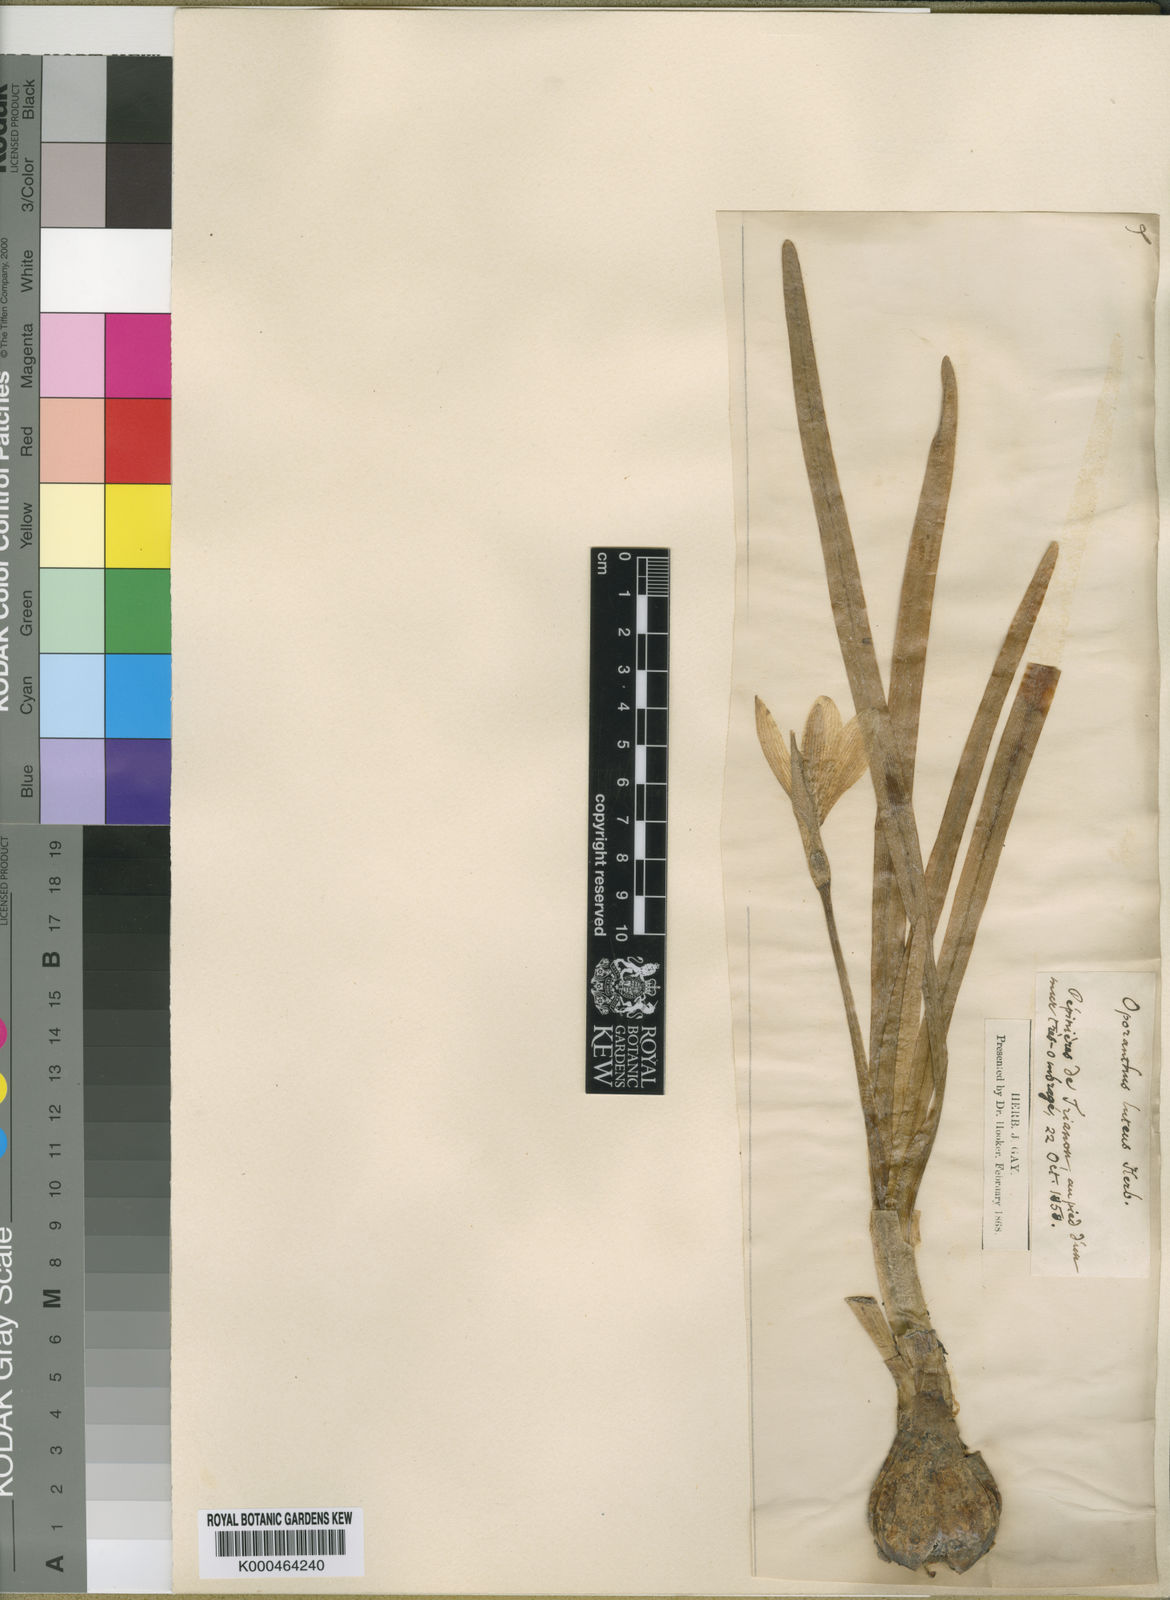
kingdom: Plantae
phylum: Tracheophyta
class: Liliopsida
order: Asparagales
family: Amaryllidaceae
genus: Sternbergia
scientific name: Sternbergia
